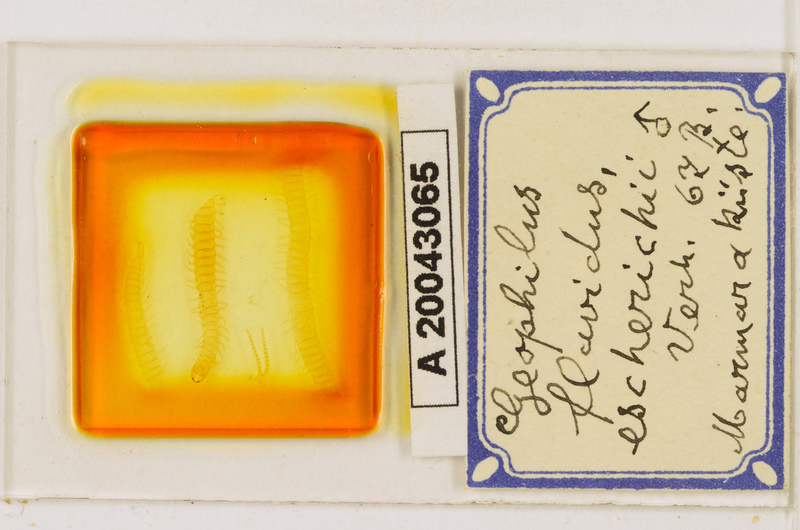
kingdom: Animalia
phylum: Arthropoda
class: Chilopoda
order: Geophilomorpha
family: Geophilidae
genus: Clinopodes
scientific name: Clinopodes flavidus
